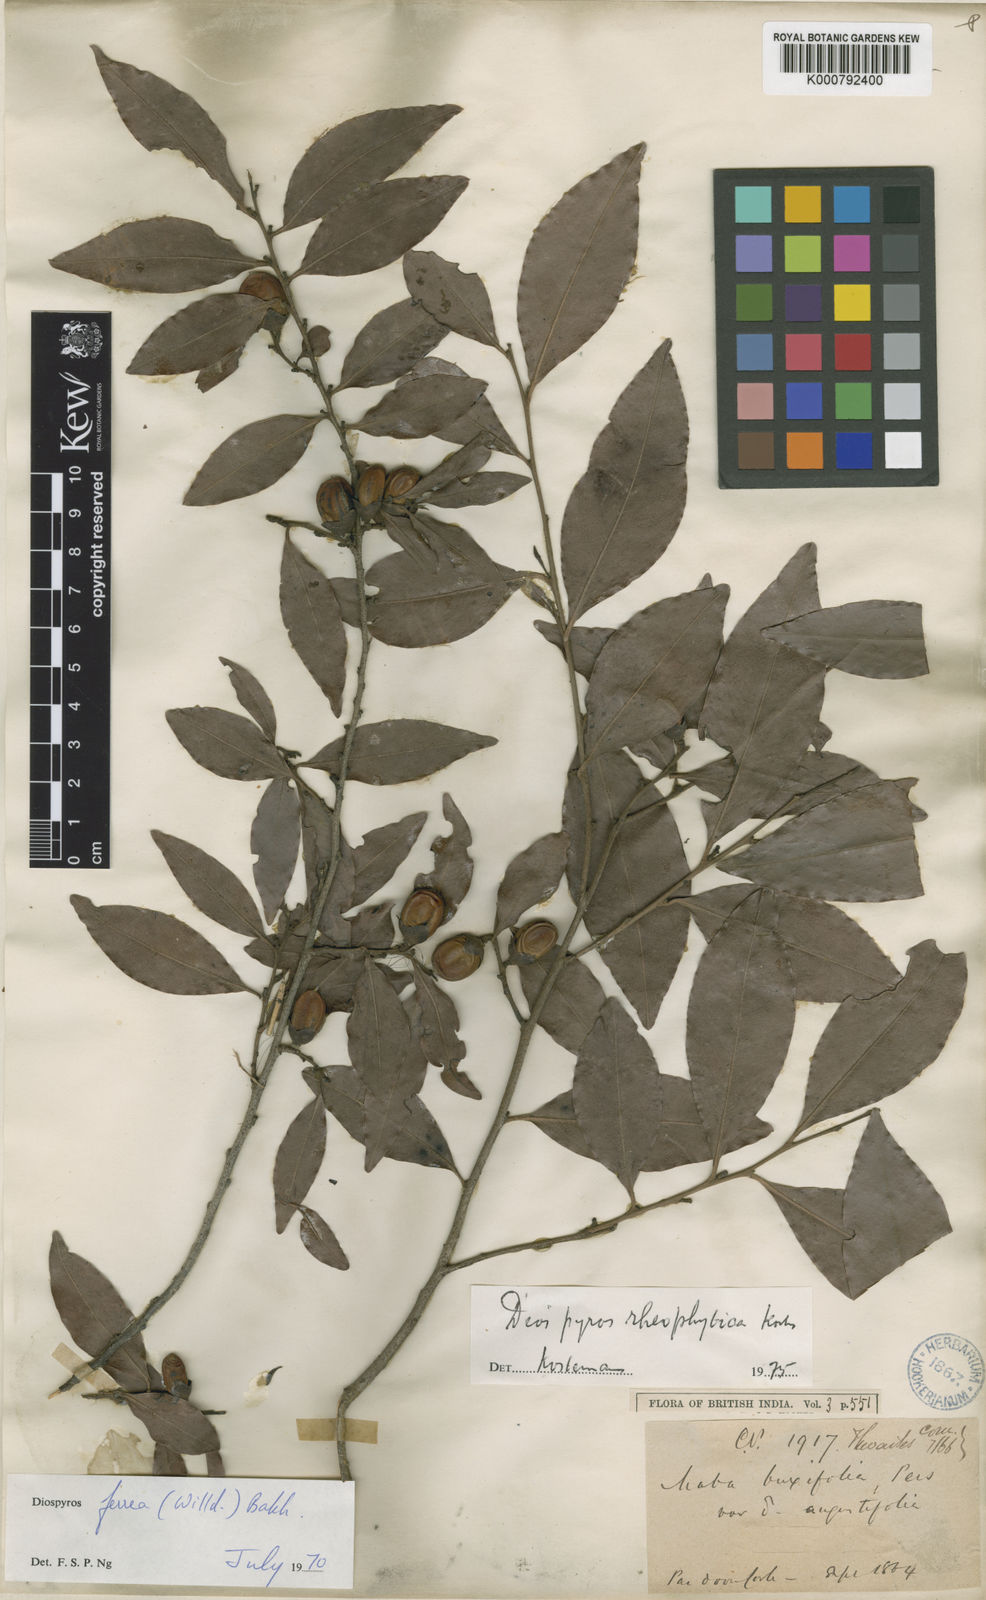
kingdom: Plantae
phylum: Tracheophyta
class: Magnoliopsida
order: Ericales
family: Ebenaceae
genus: Diospyros
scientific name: Diospyros buxifolia
